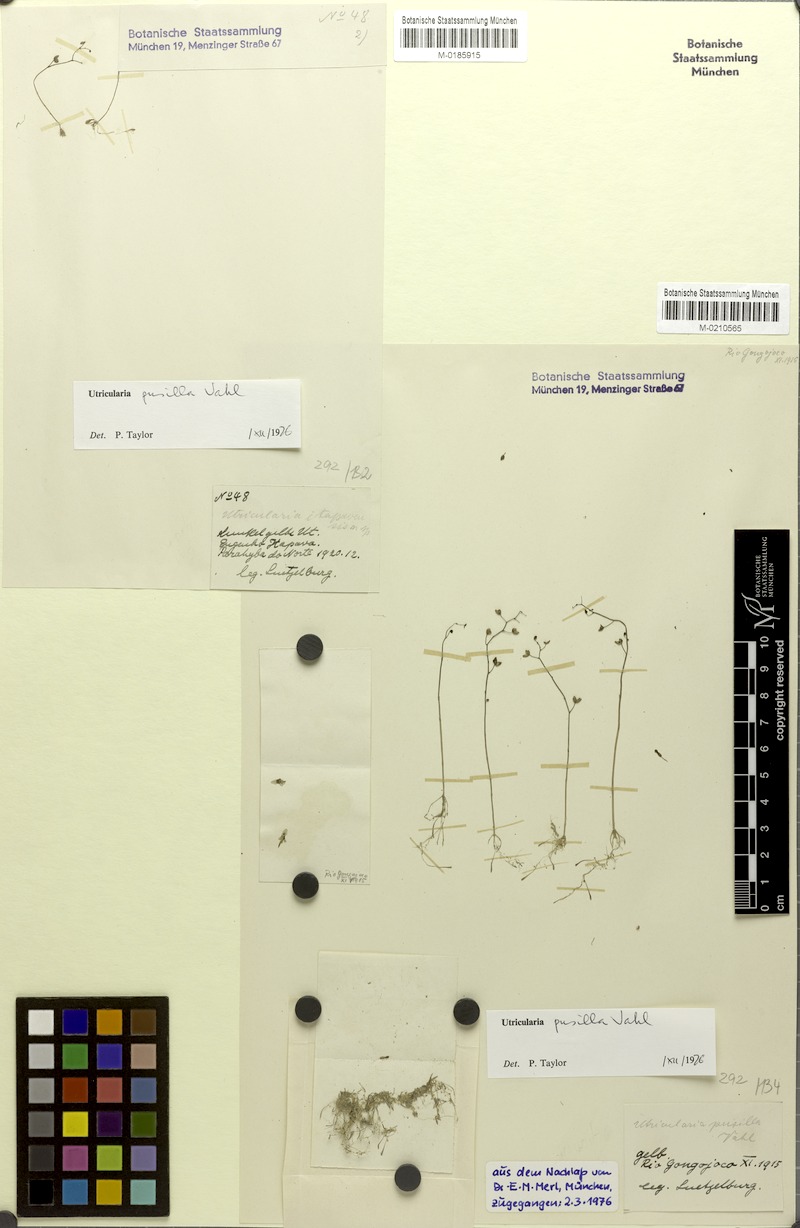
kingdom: Plantae
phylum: Tracheophyta
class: Magnoliopsida
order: Lamiales
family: Lentibulariaceae
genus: Utricularia
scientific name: Utricularia pusilla
